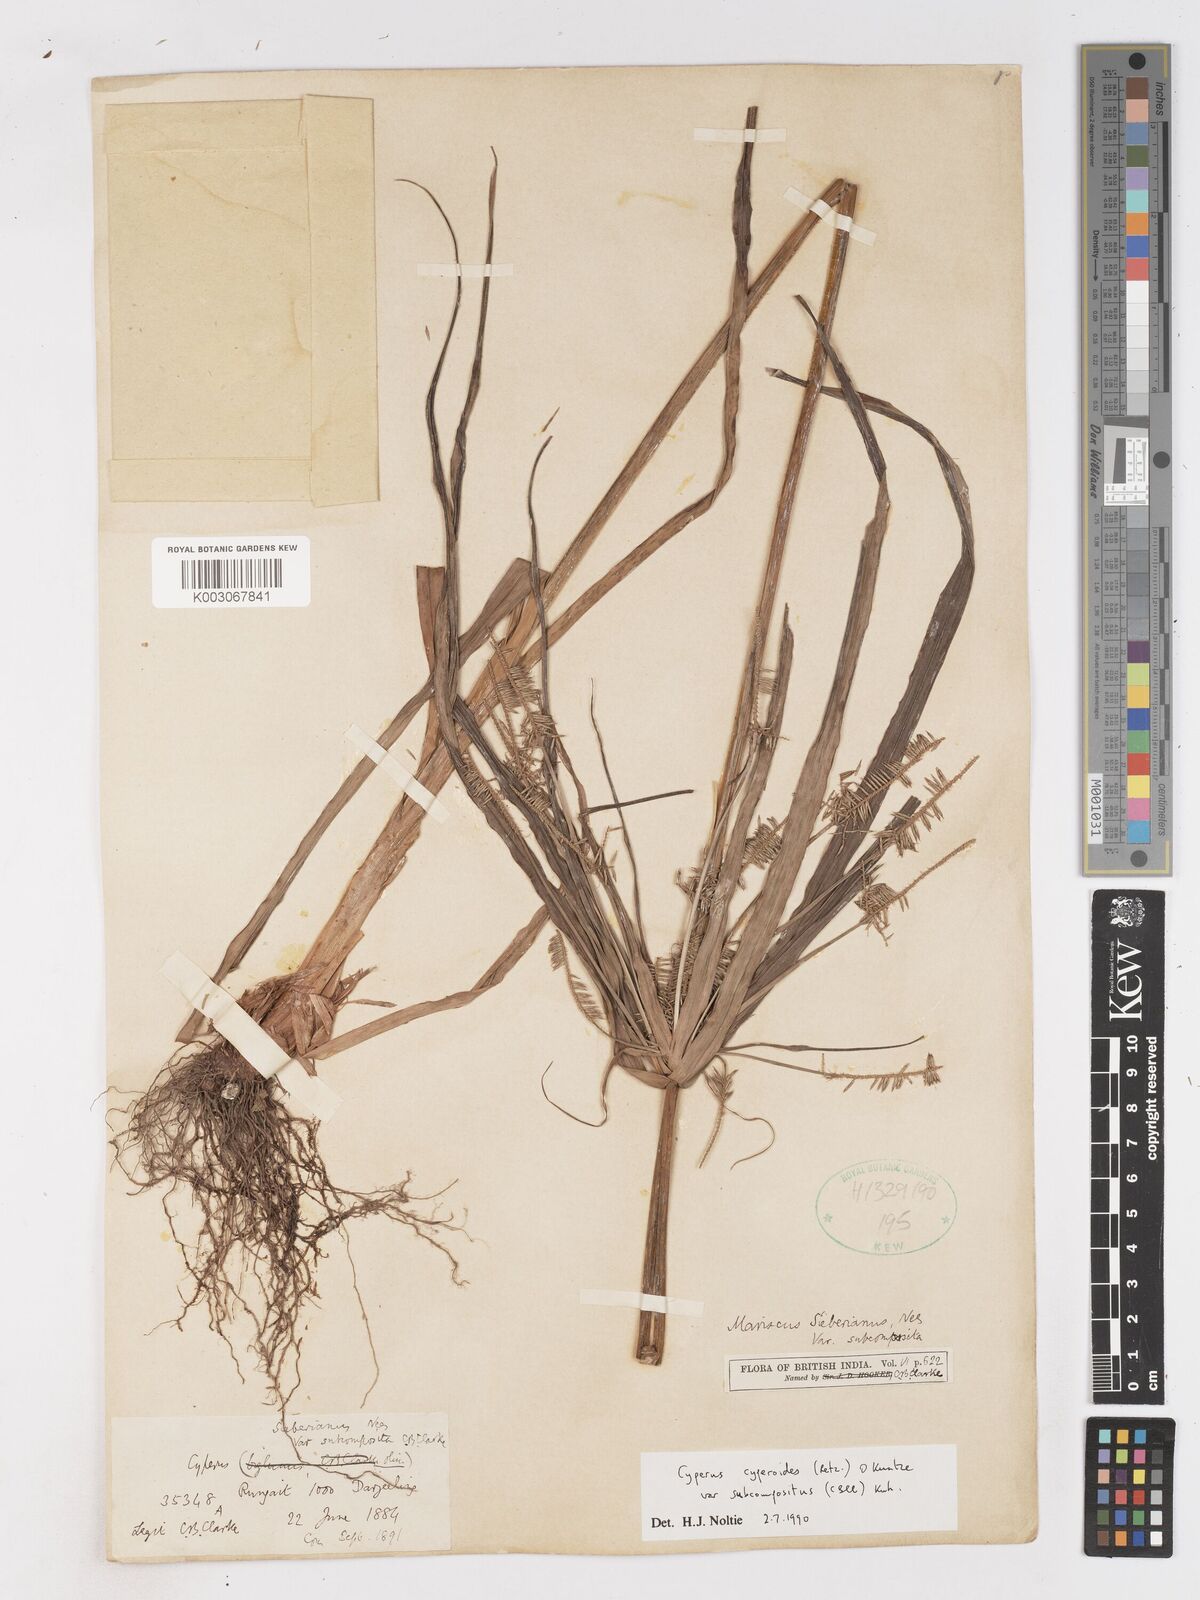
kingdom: Plantae
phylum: Tracheophyta
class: Liliopsida
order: Poales
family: Cyperaceae
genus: Cyperus
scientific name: Cyperus cyperoides
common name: Pacific island flat sedge
